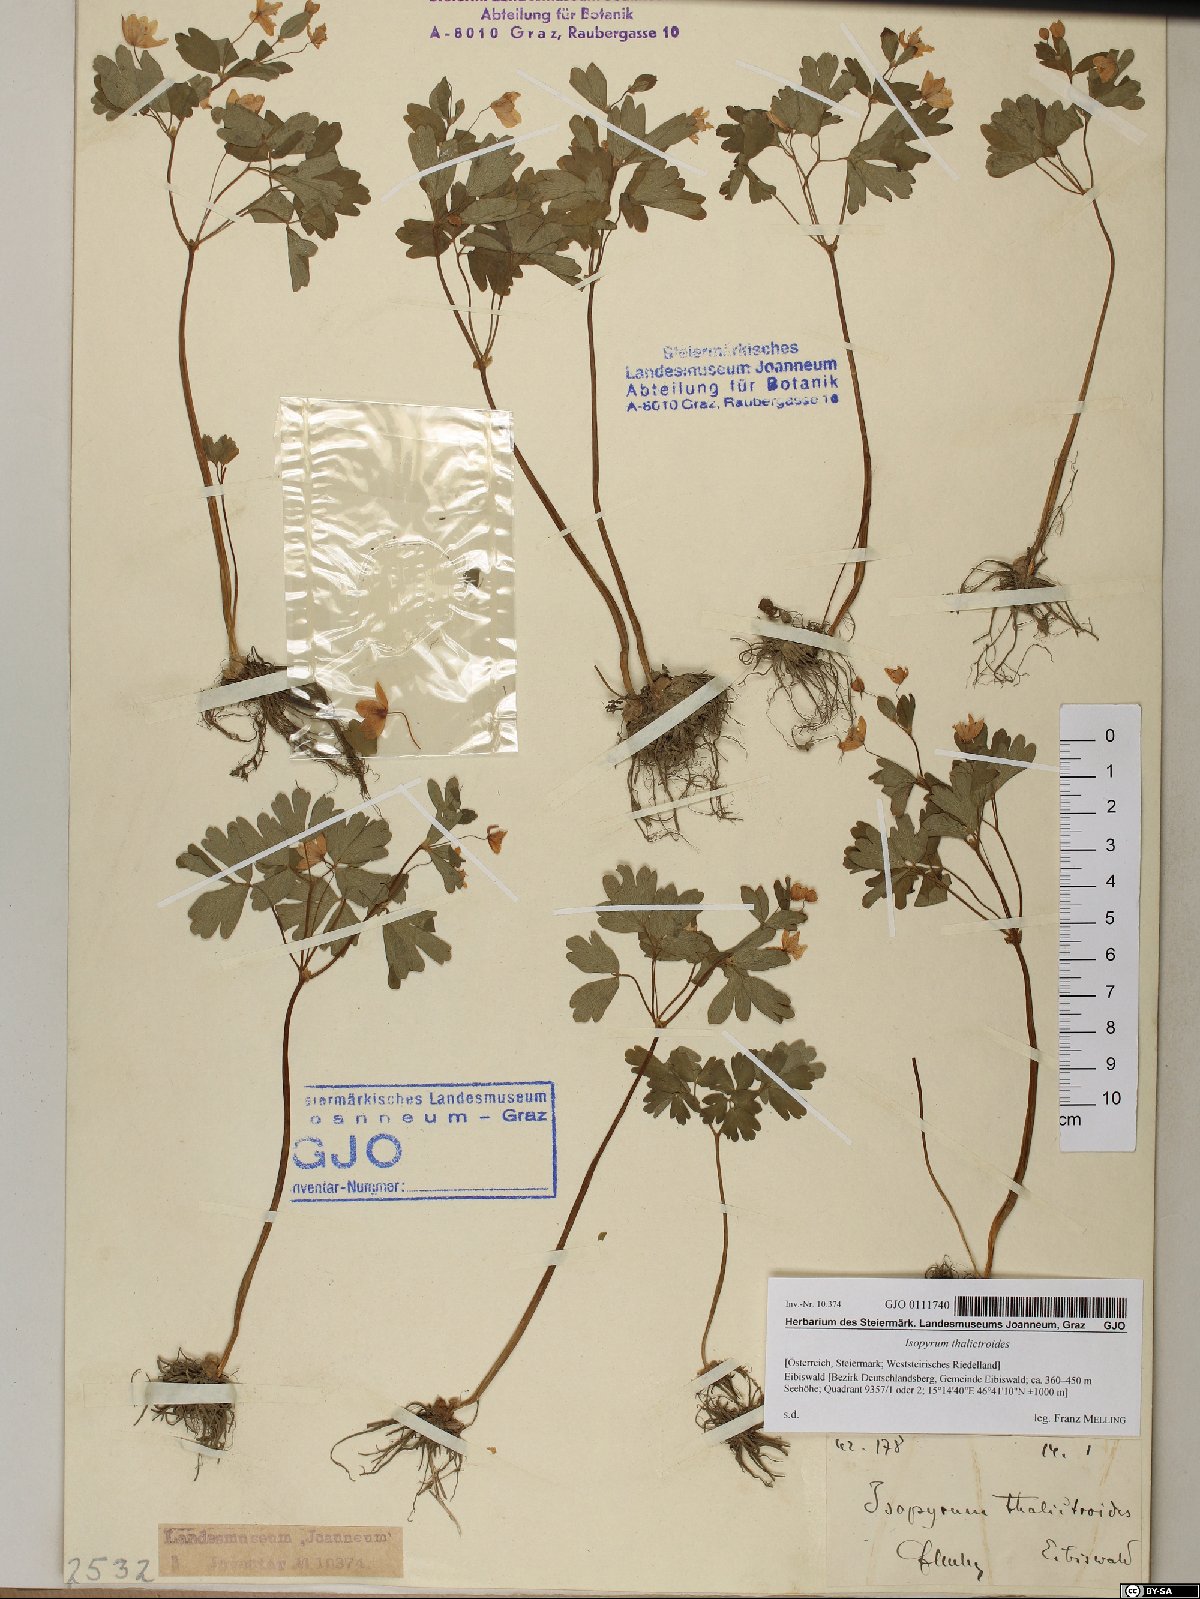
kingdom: Plantae
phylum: Tracheophyta
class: Magnoliopsida
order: Ranunculales
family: Ranunculaceae
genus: Isopyrum
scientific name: Isopyrum thalictroides
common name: Isopyrum
